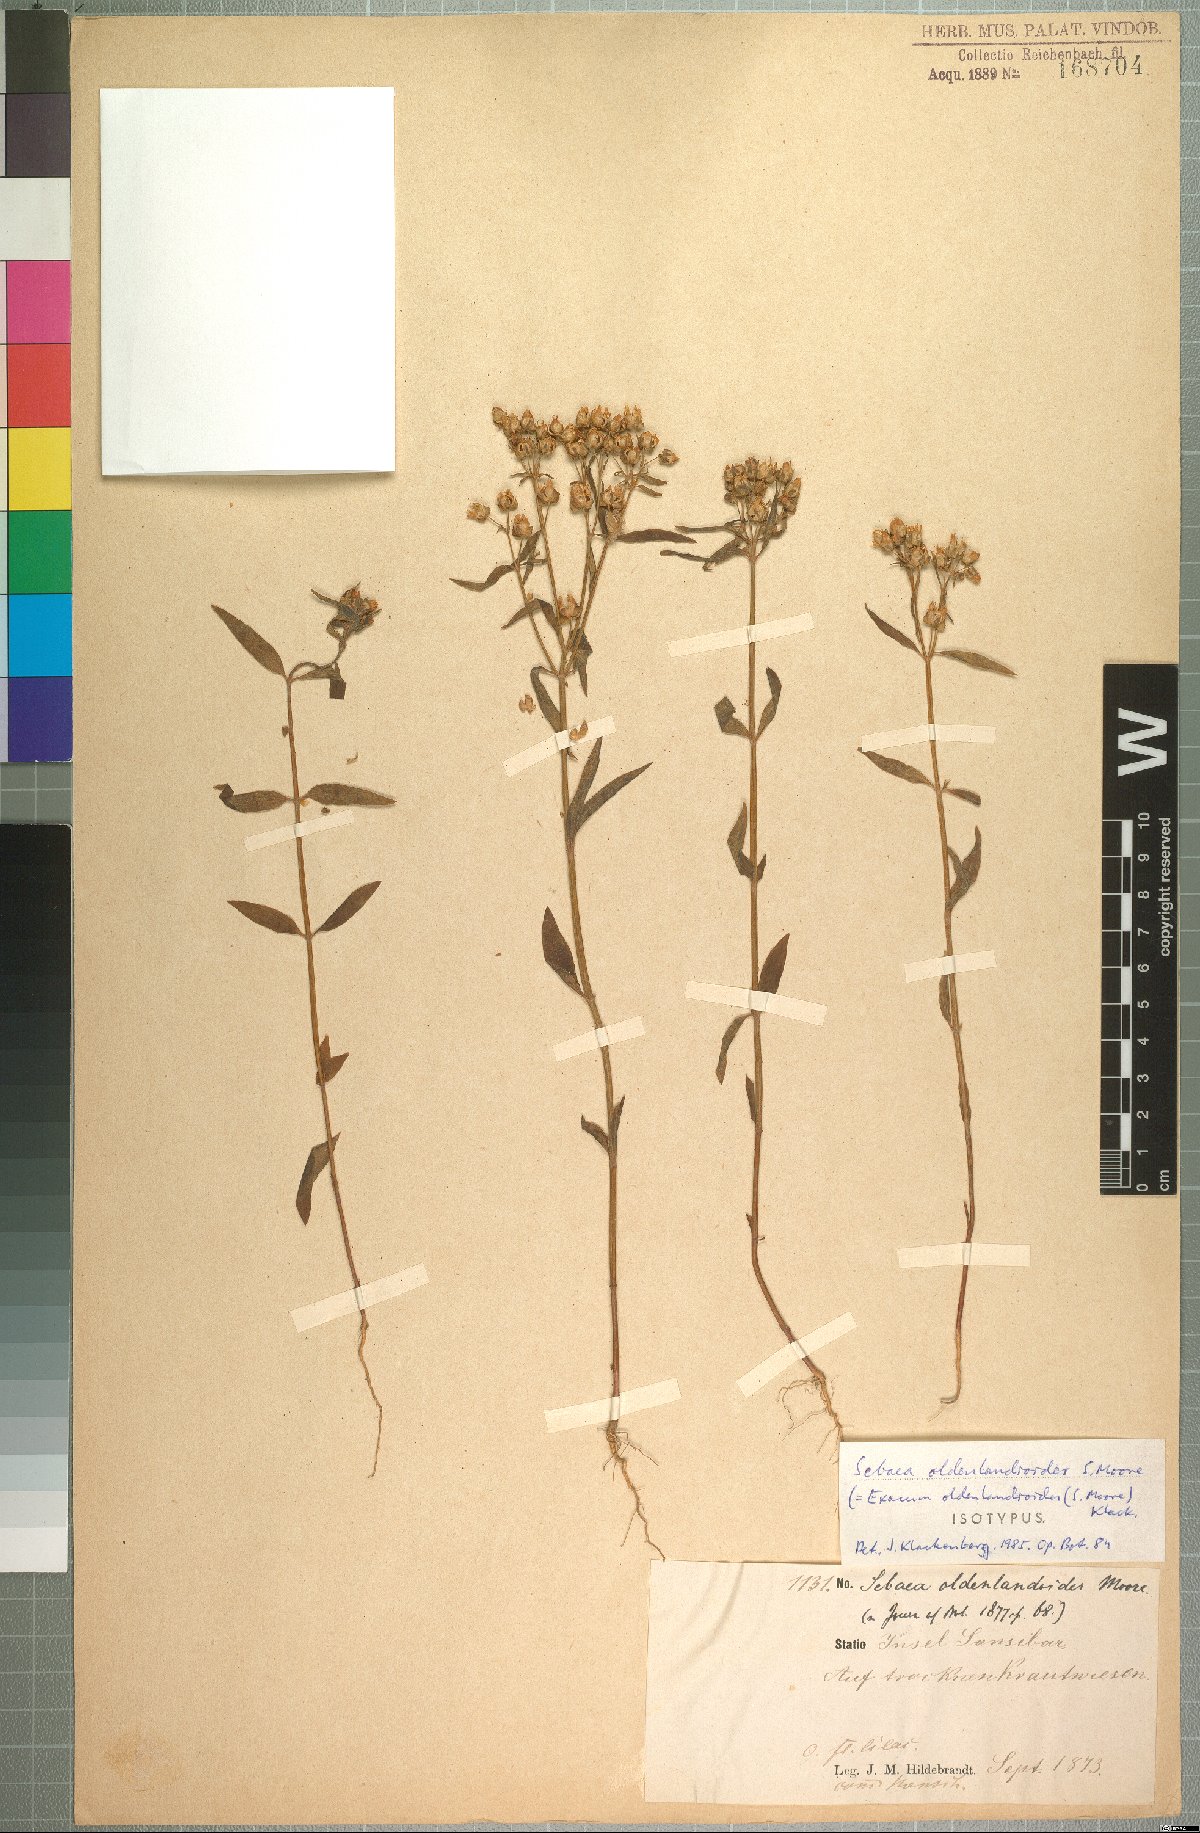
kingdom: Plantae
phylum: Tracheophyta
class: Magnoliopsida
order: Gentianales
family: Gentianaceae
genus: Exacum
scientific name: Exacum oldenlandioides
